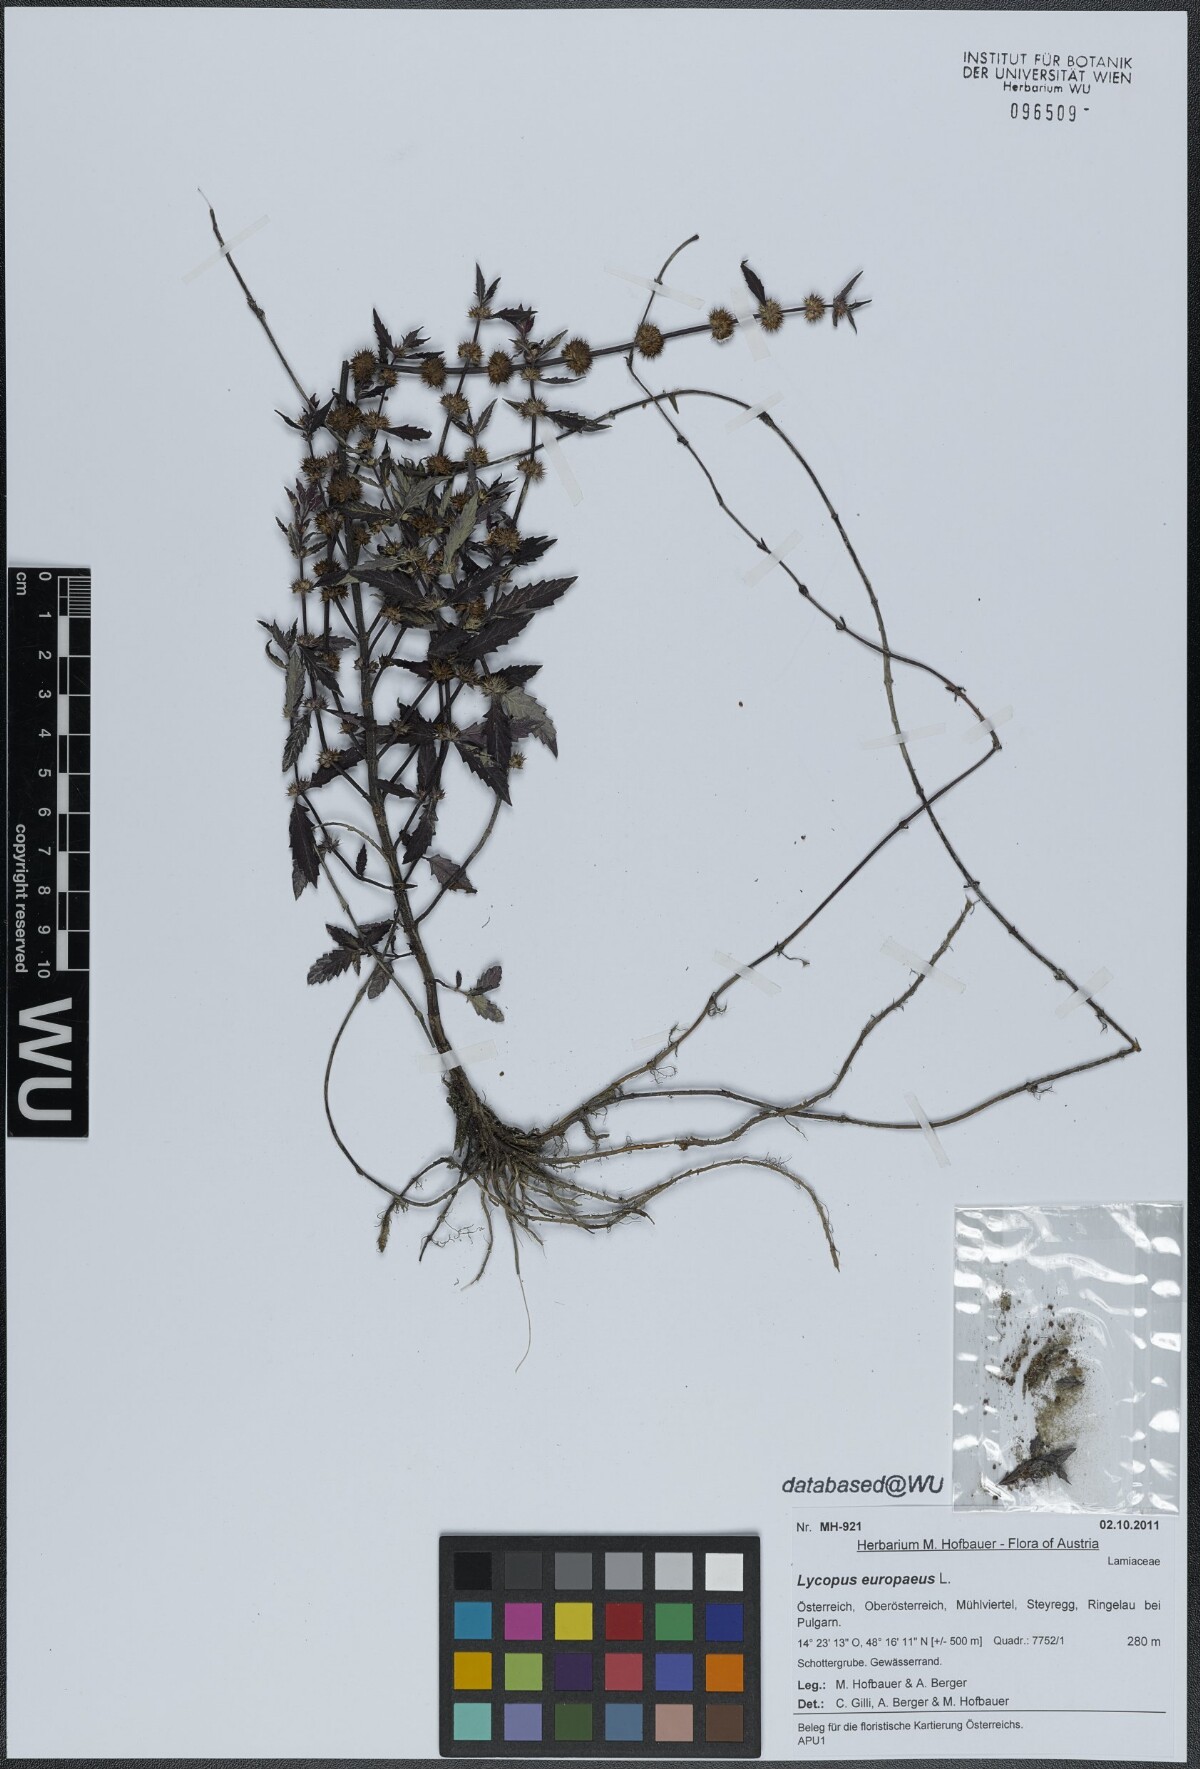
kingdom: Plantae
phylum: Tracheophyta
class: Magnoliopsida
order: Lamiales
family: Lamiaceae
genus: Lycopus
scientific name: Lycopus europaeus
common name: European bugleweed
